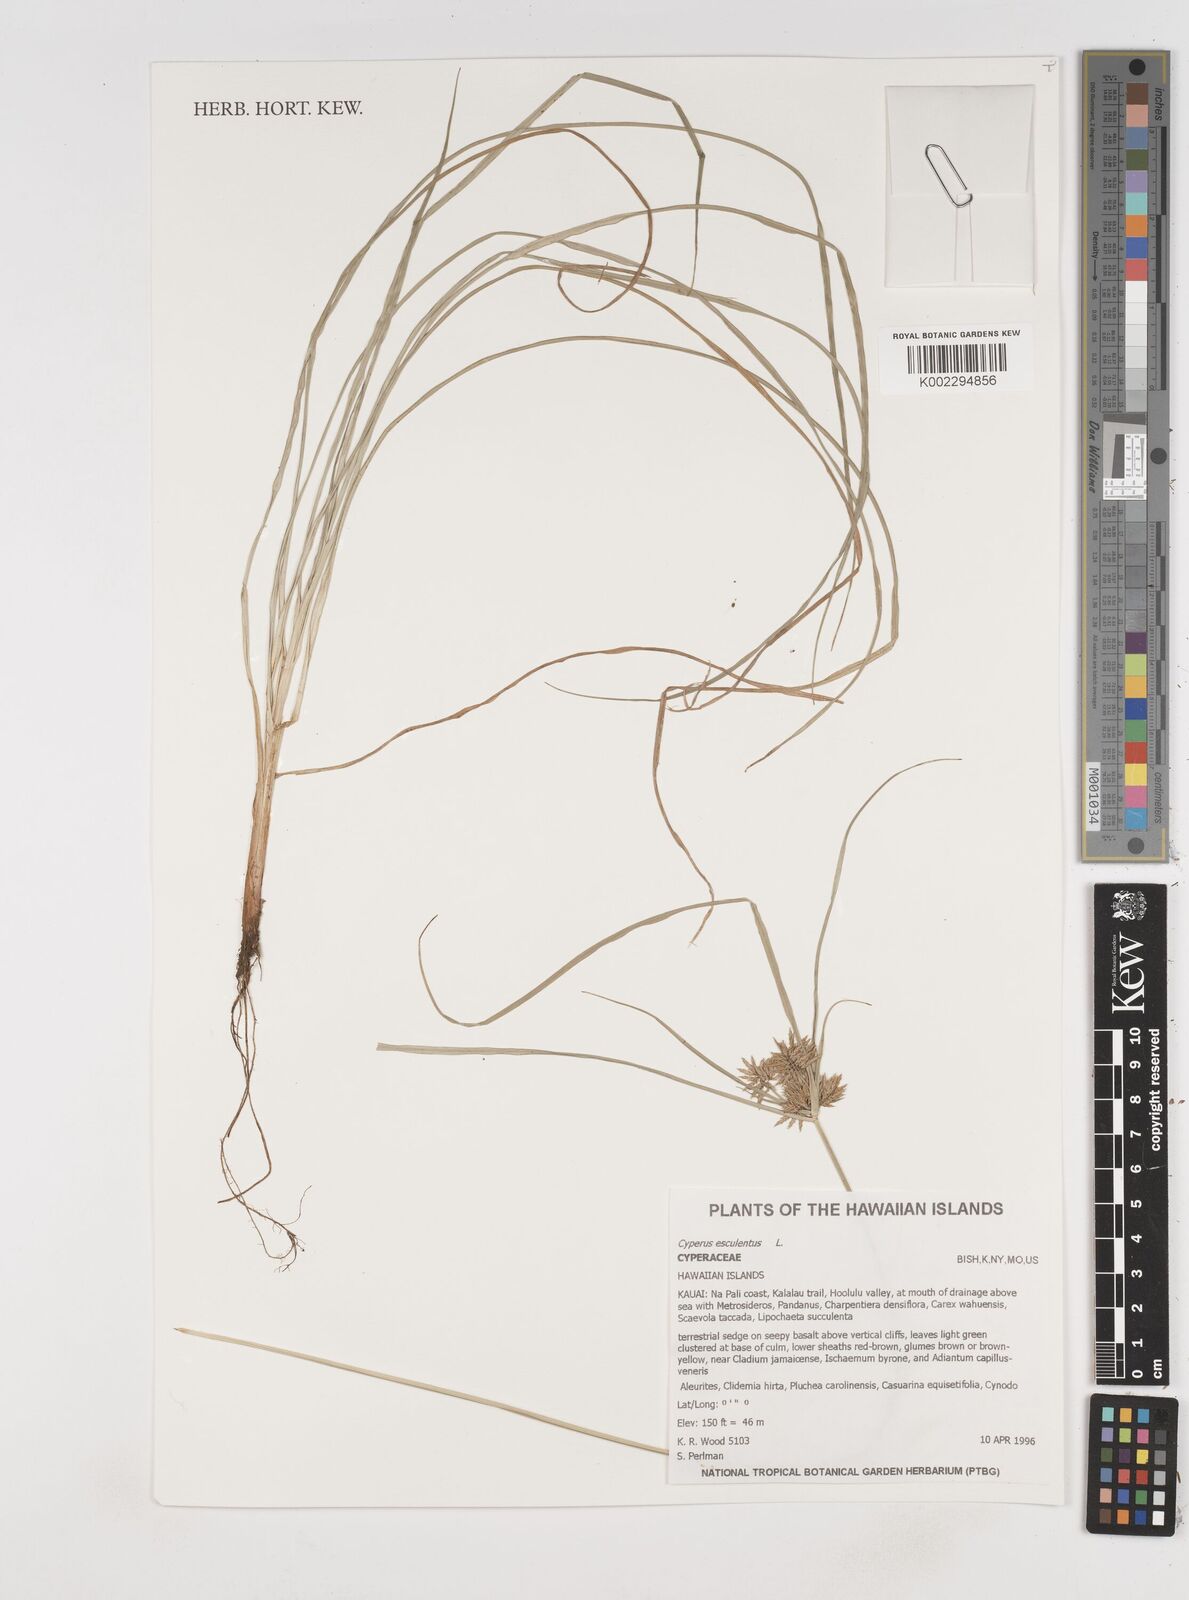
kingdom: Plantae
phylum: Tracheophyta
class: Liliopsida
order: Poales
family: Cyperaceae
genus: Cyperus
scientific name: Cyperus esculentus
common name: Yellow nutsedge
